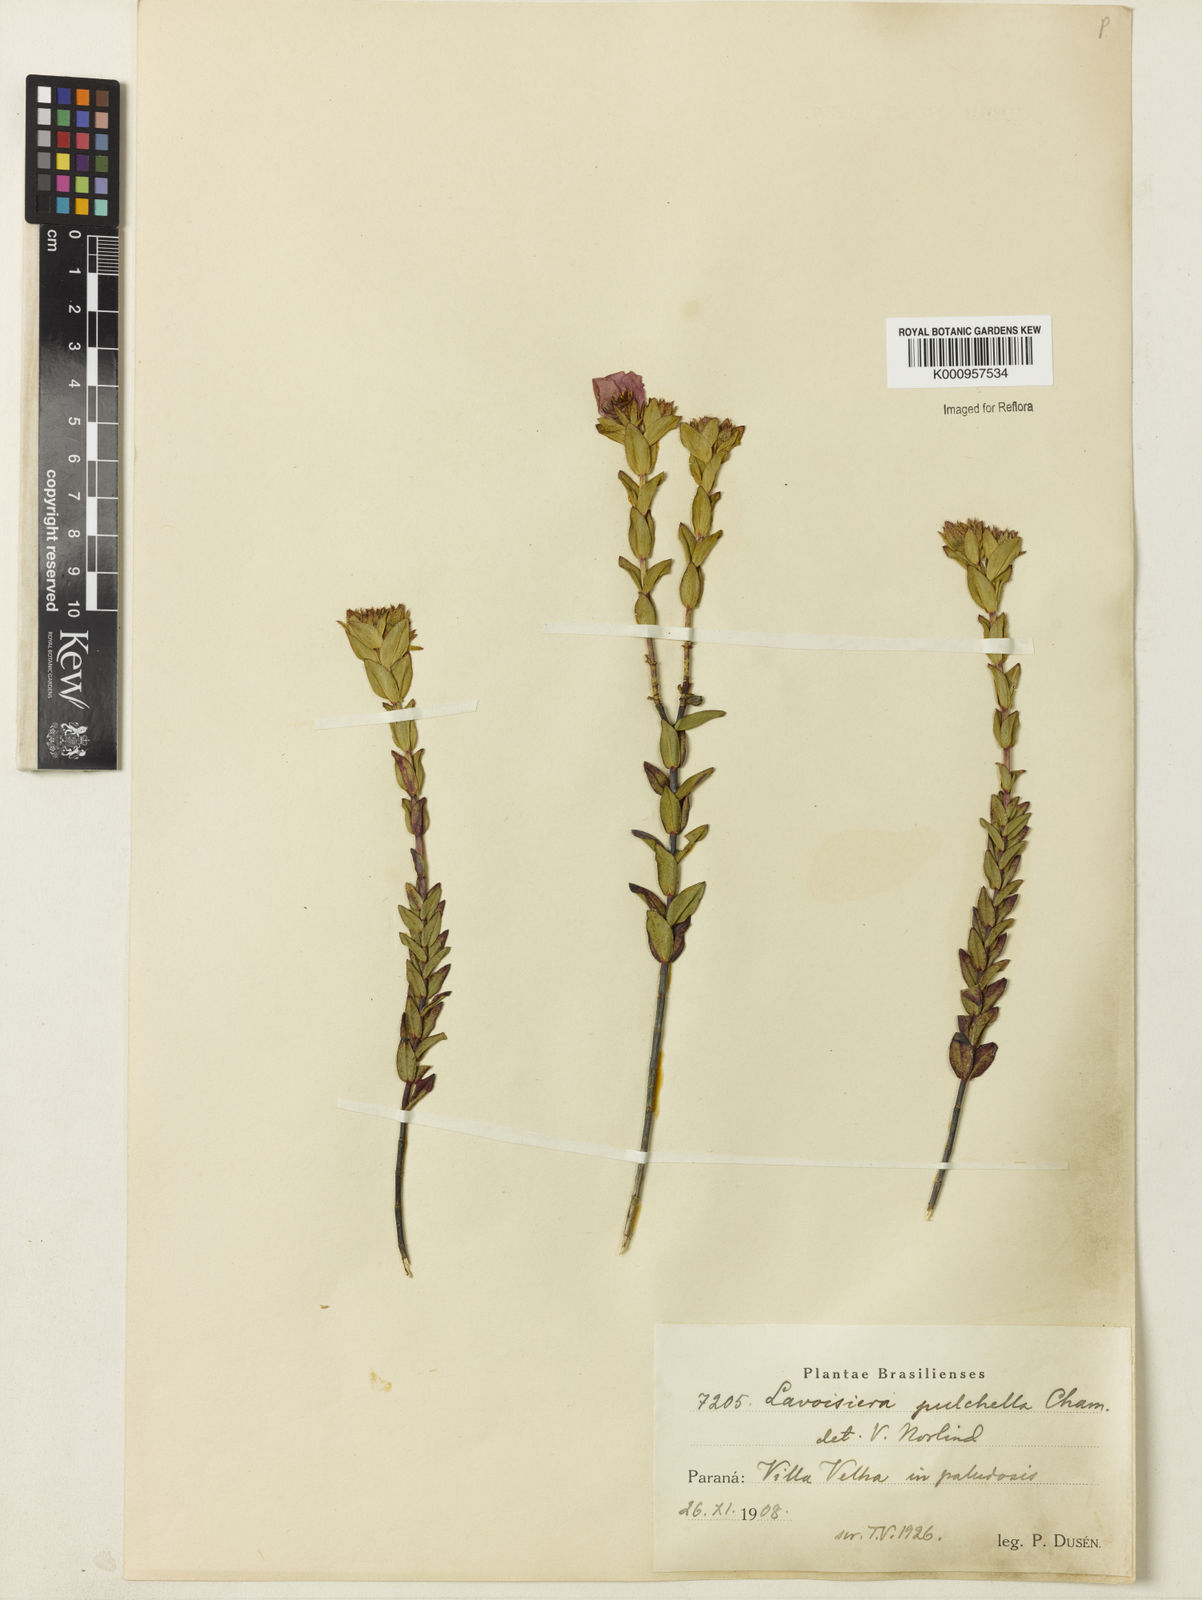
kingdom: Plantae
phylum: Tracheophyta
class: Magnoliopsida
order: Myrtales
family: Melastomataceae
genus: Microlicia
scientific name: Microlicia australis
